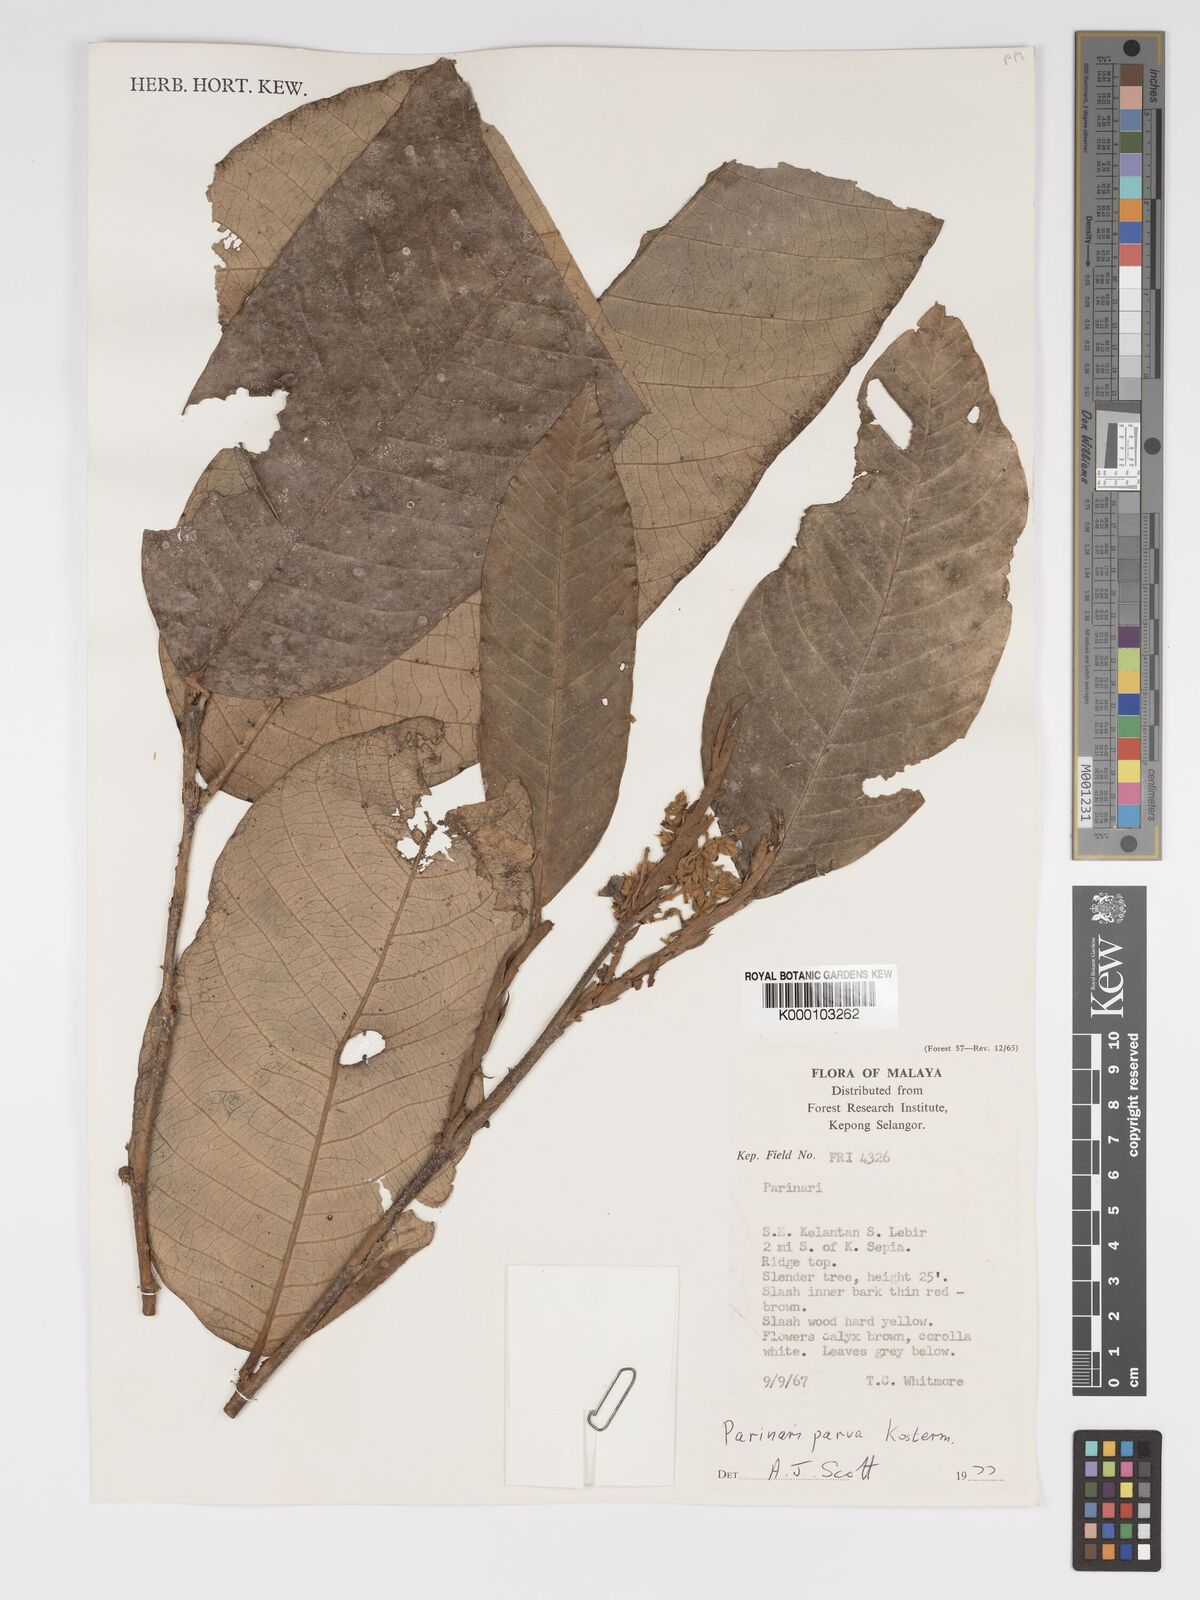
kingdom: Plantae
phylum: Tracheophyta
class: Magnoliopsida
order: Malpighiales
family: Chrysobalanaceae
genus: Parinari
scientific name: Parinari parva
